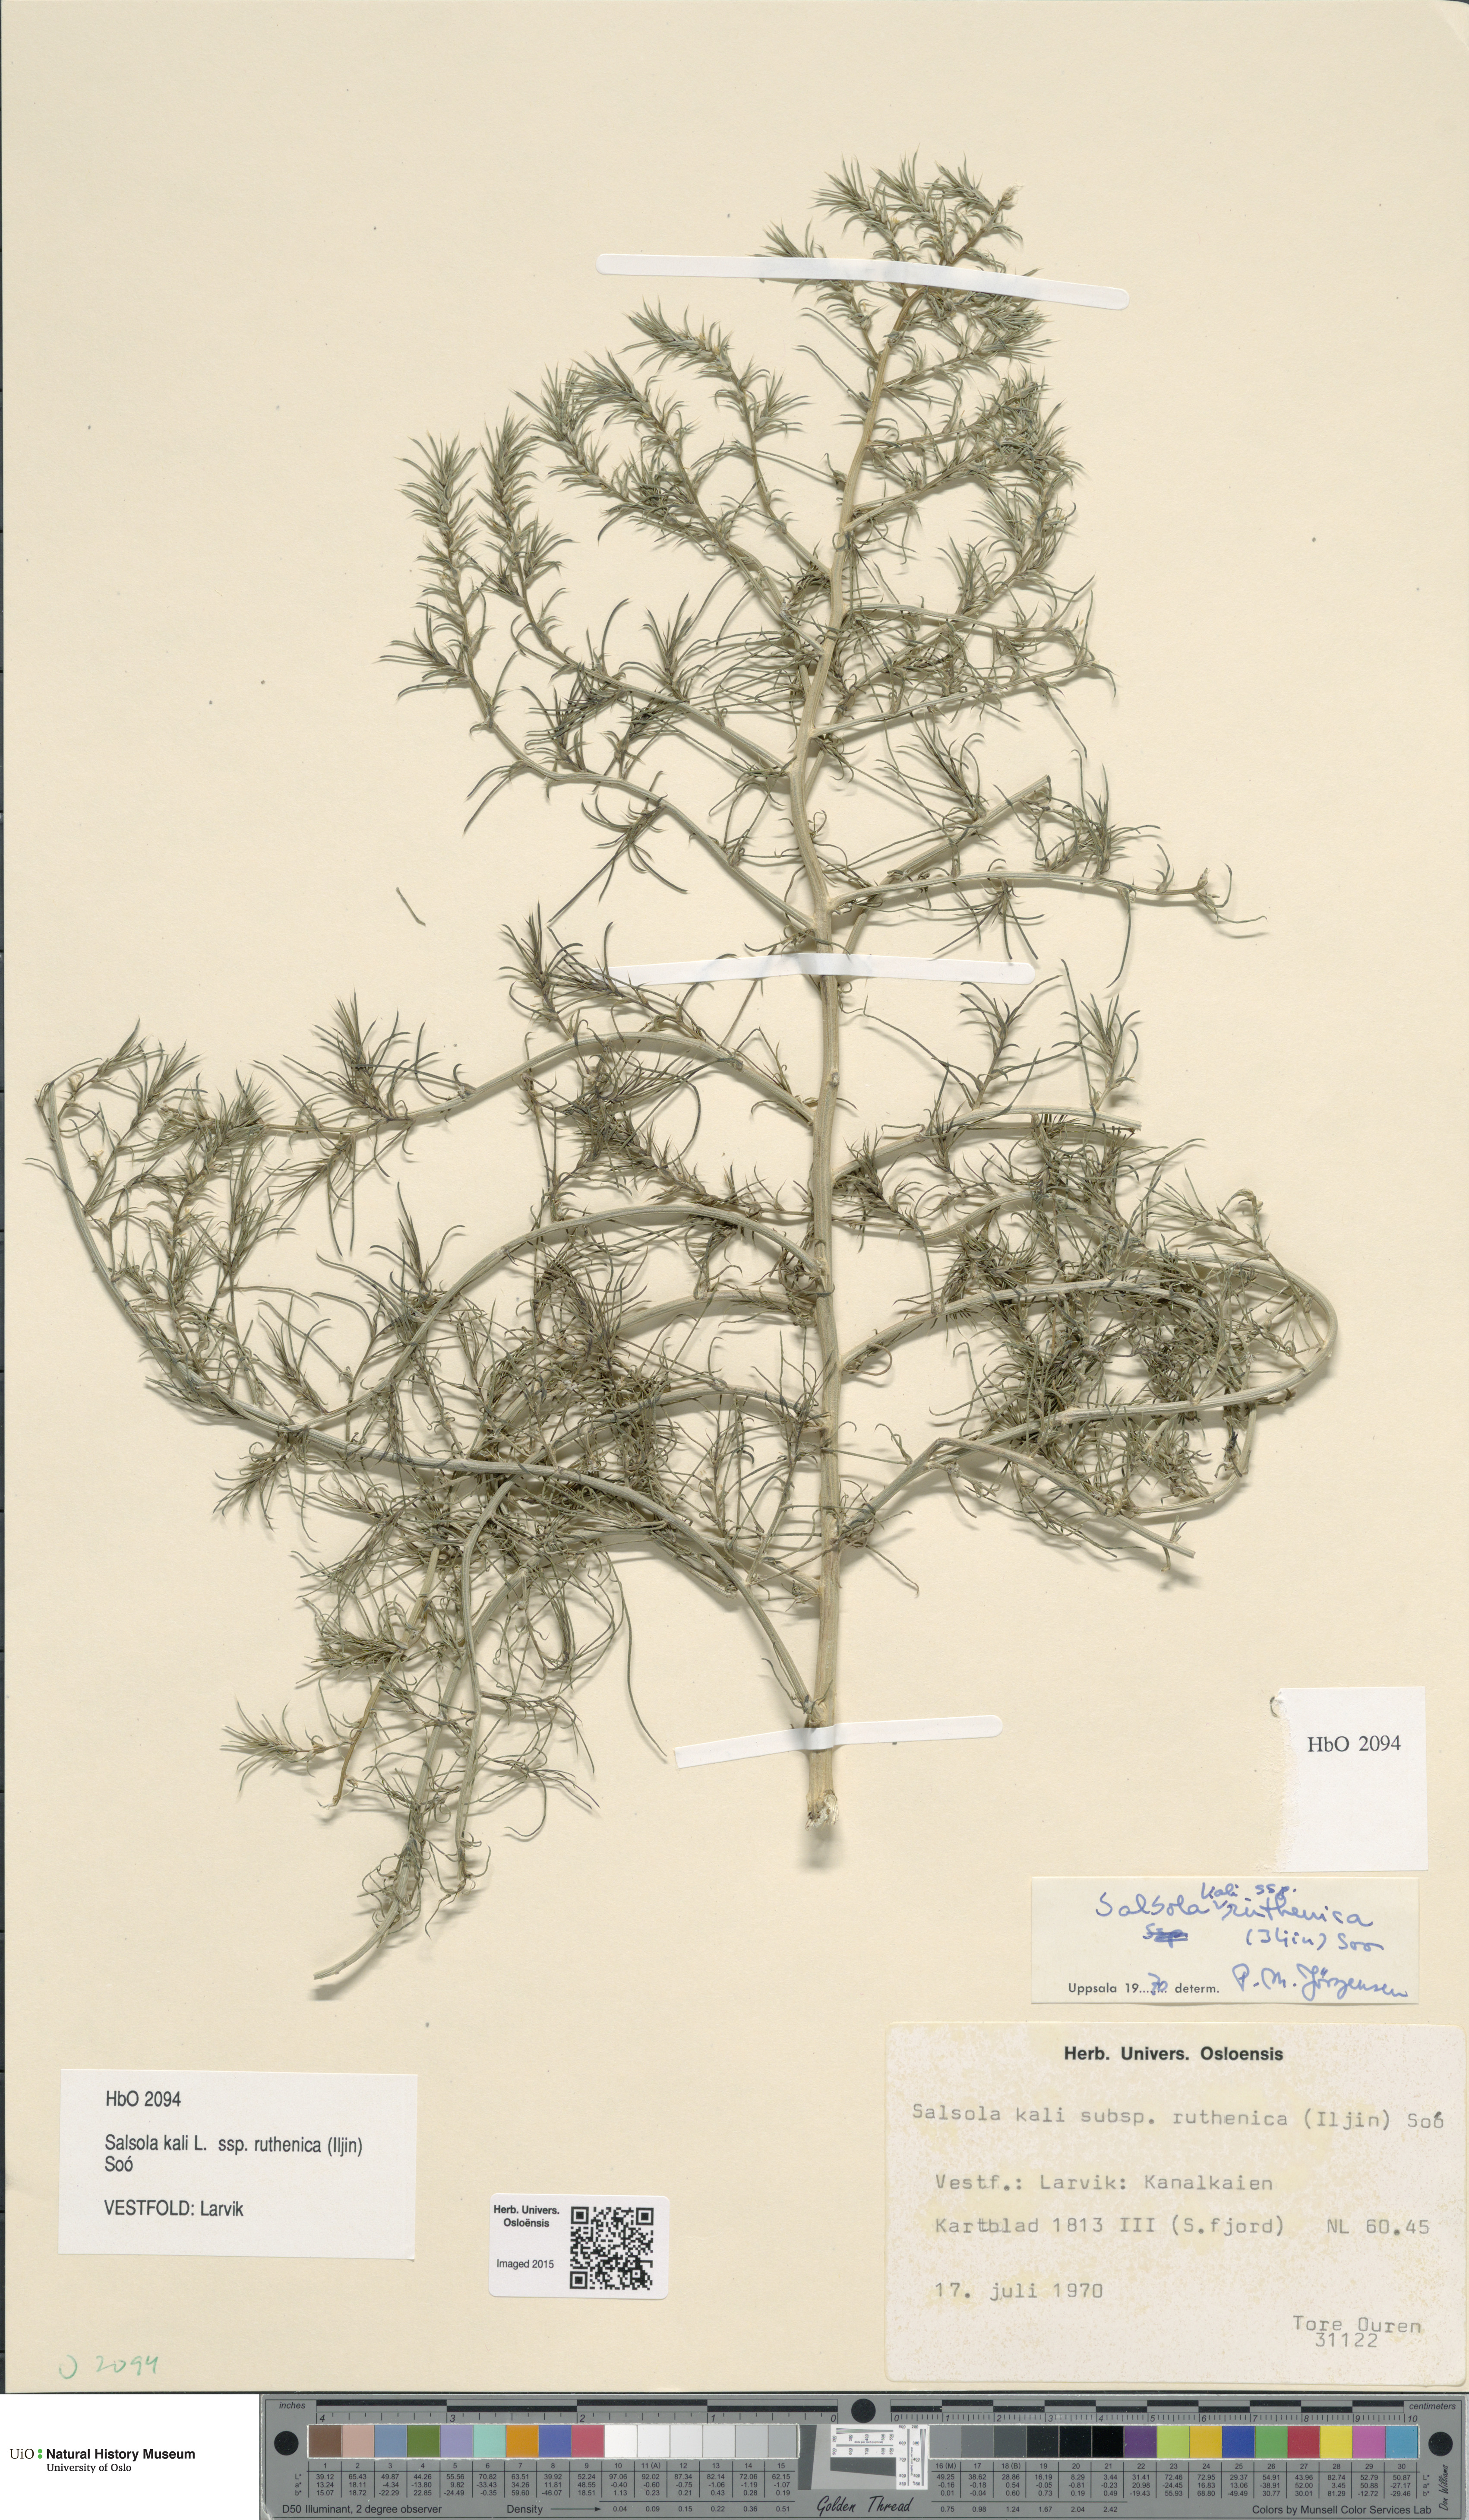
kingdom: Plantae
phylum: Tracheophyta
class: Magnoliopsida
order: Caryophyllales
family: Amaranthaceae
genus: Salsola
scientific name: Salsola tragus
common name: Prickly russian thistle
